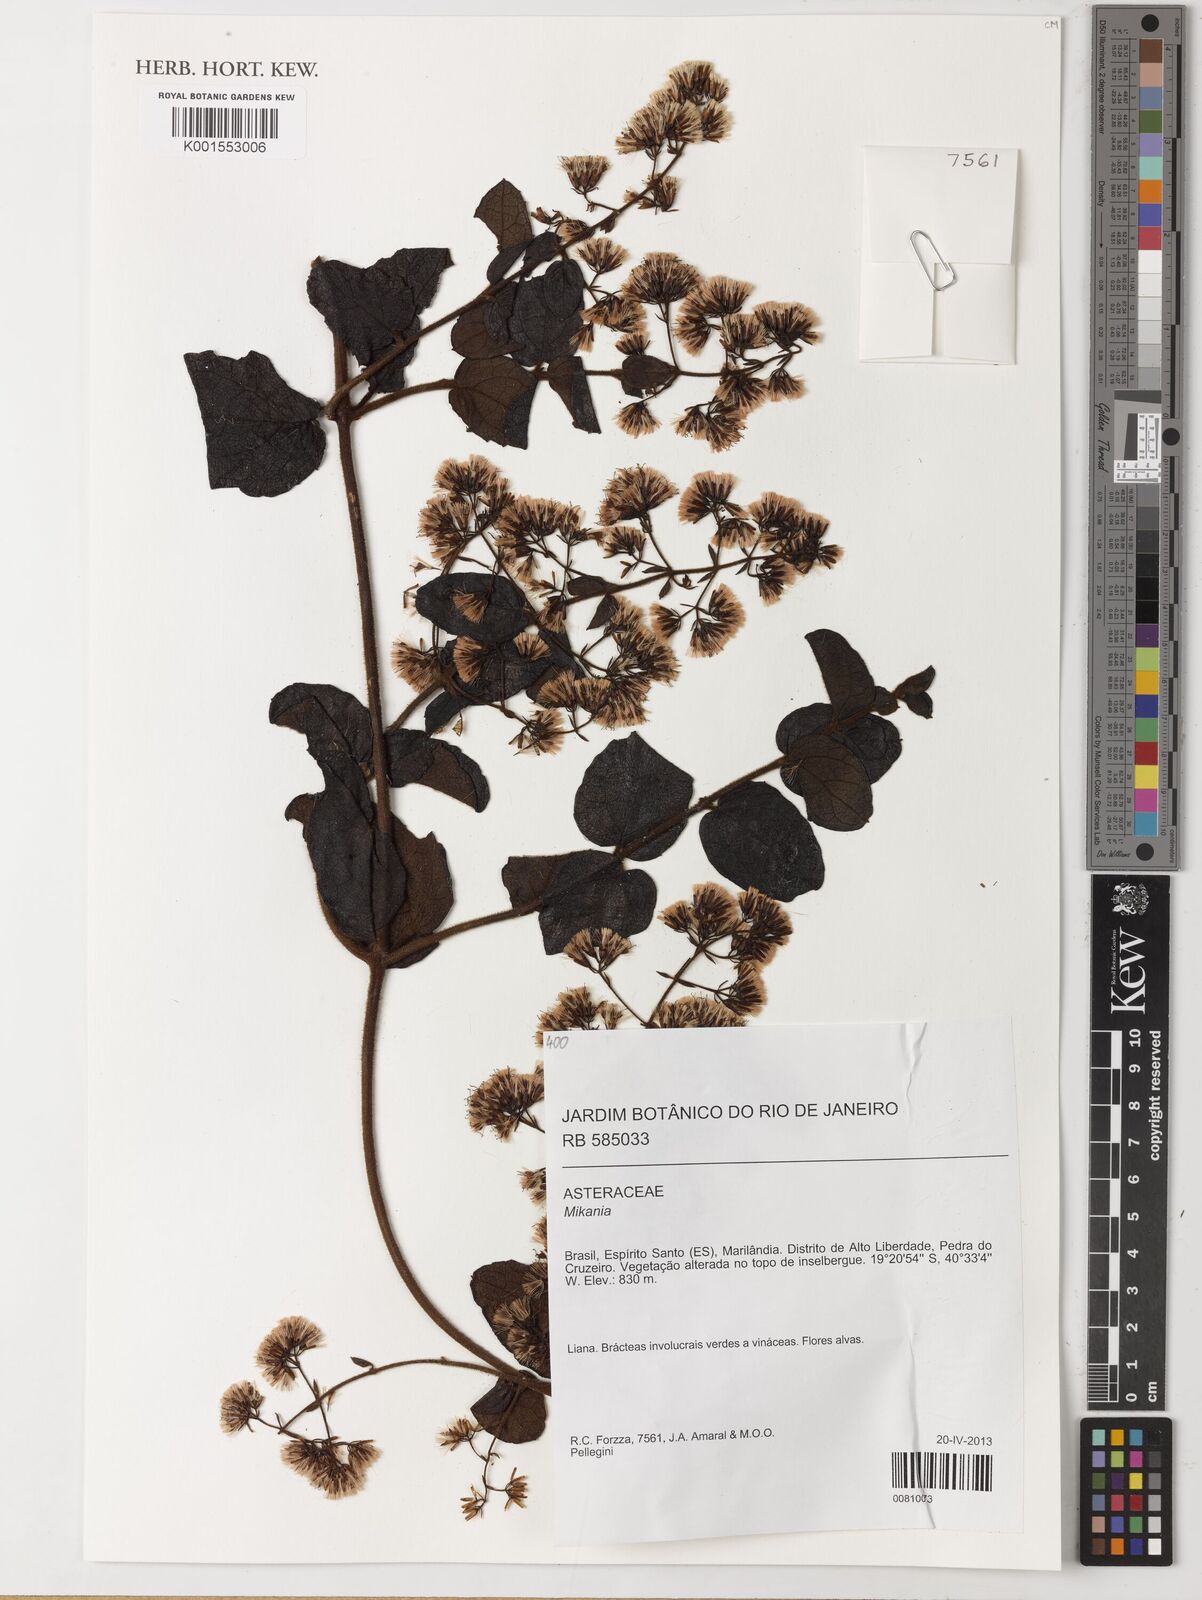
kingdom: Plantae
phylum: Tracheophyta
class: Magnoliopsida
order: Asterales
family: Asteraceae
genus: Mikania
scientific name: Mikania
